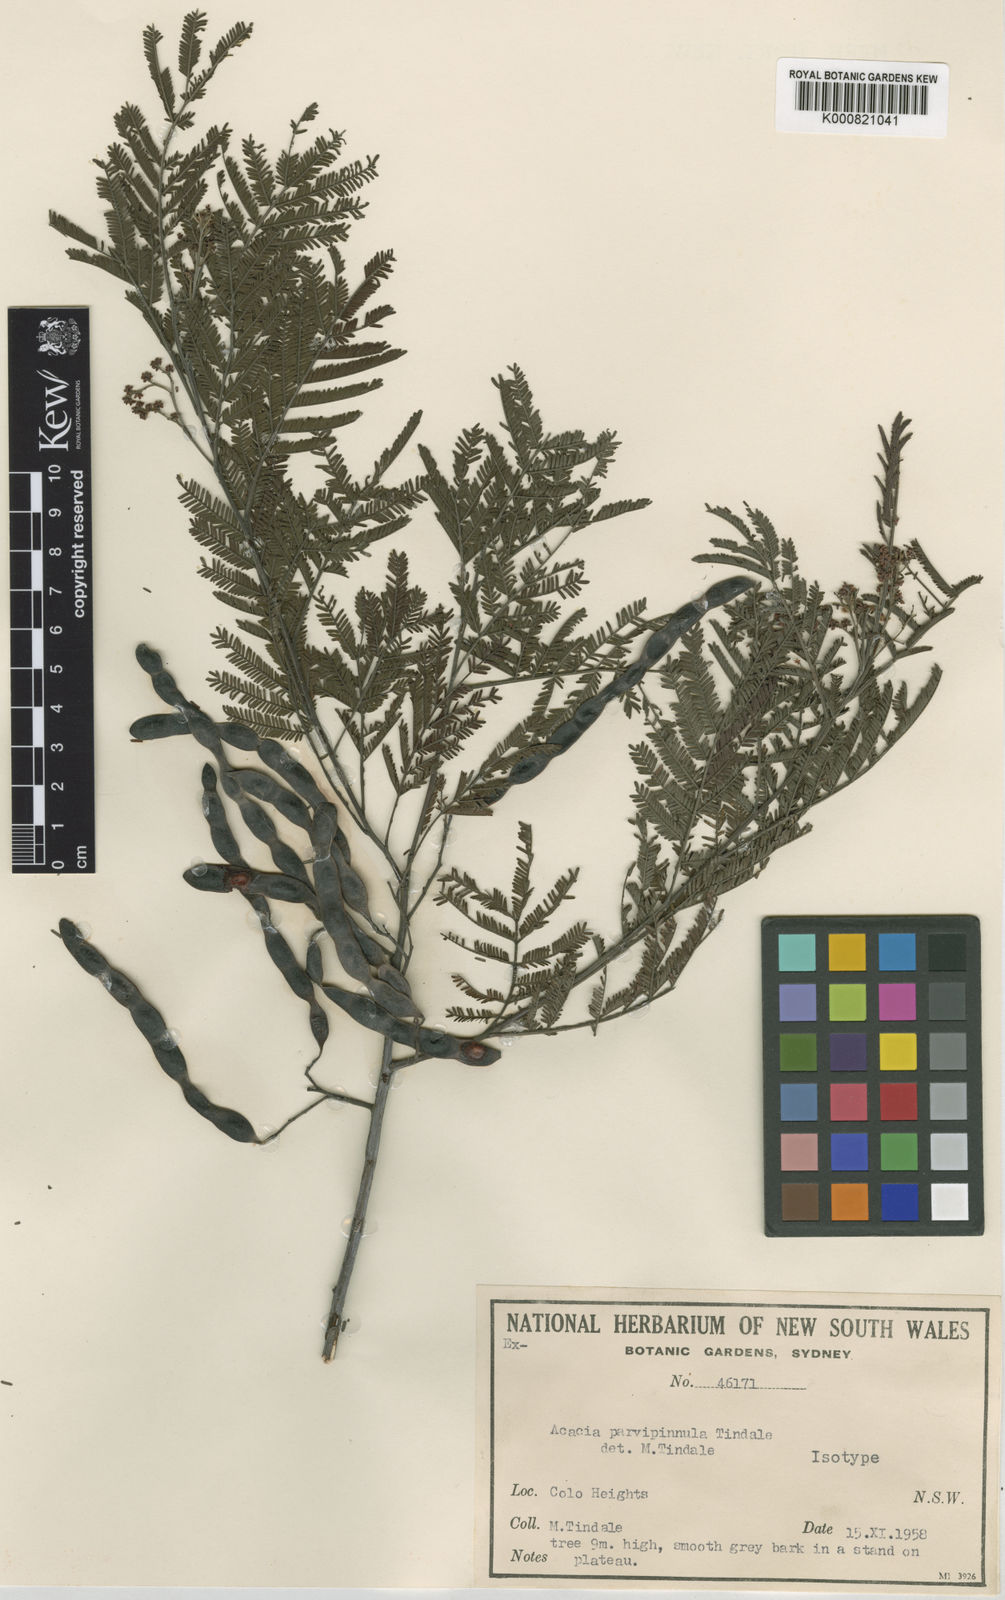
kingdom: Plantae
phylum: Tracheophyta
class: Magnoliopsida
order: Fabales
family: Fabaceae
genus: Acacia
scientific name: Acacia parvipinnula
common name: Silver-stem wattle
